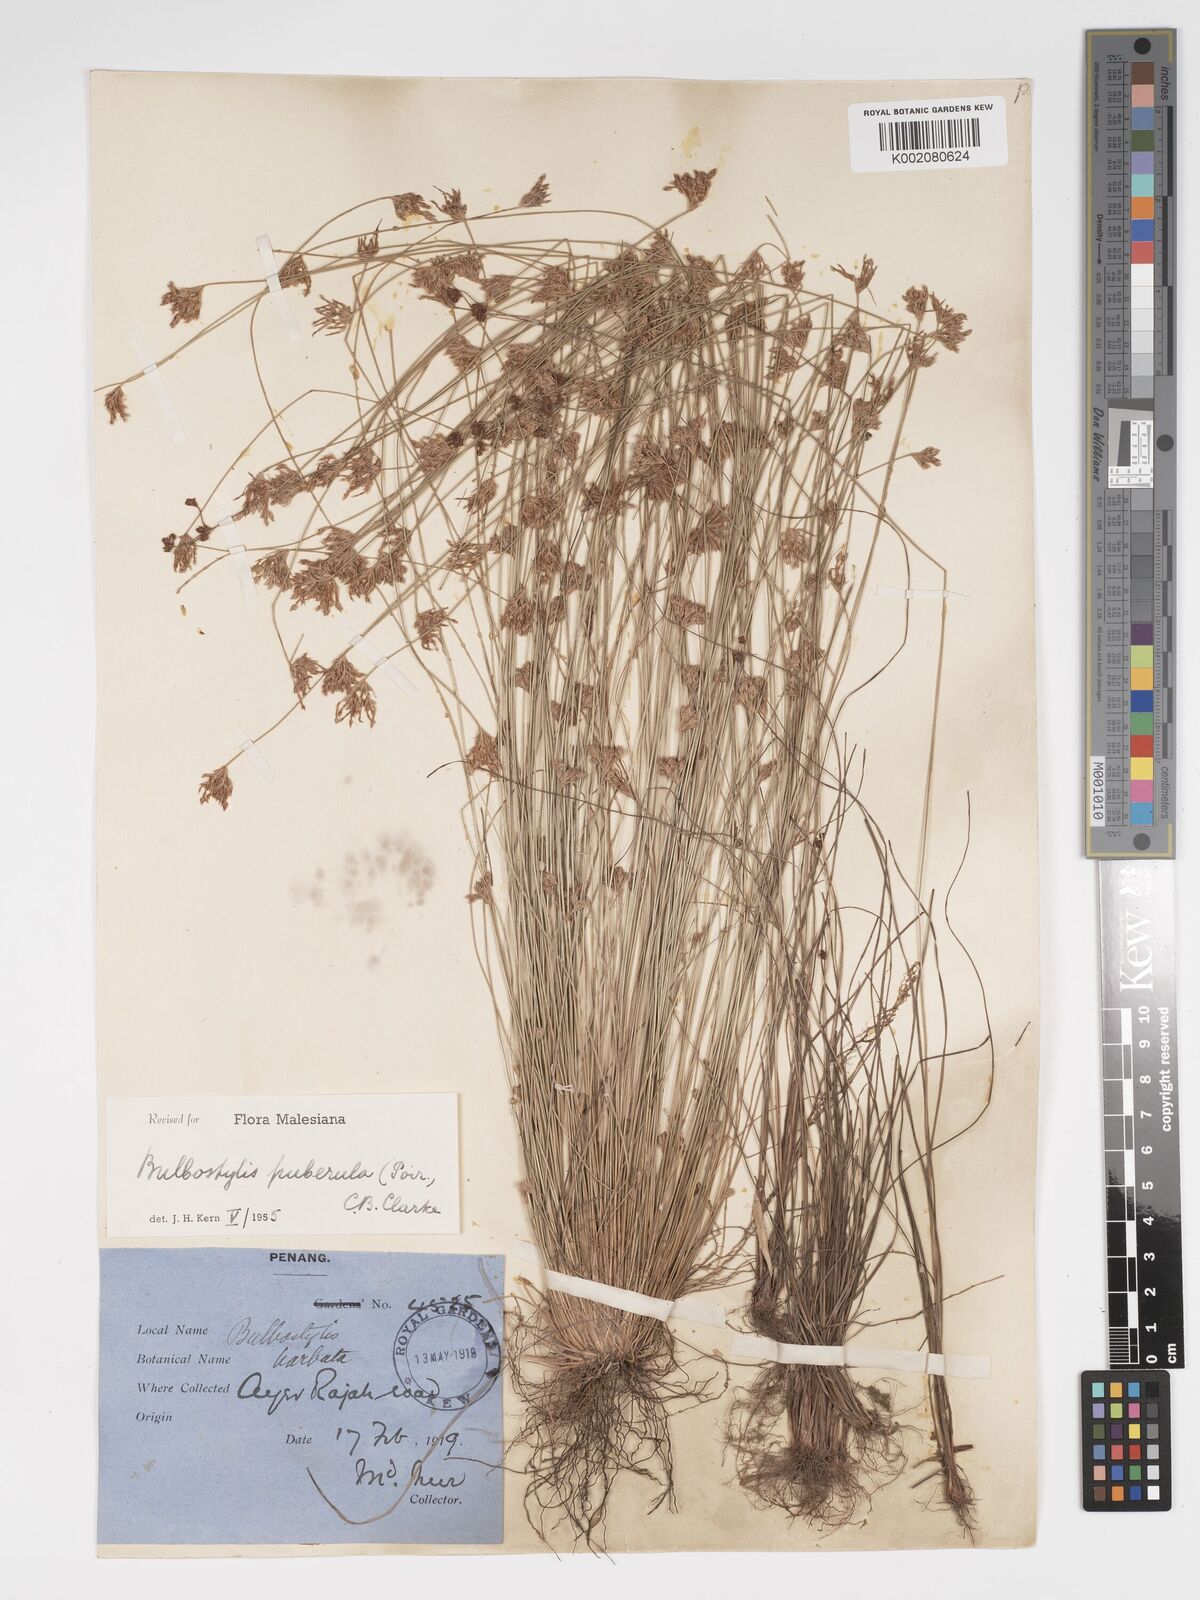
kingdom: Plantae
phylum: Tracheophyta
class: Liliopsida
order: Poales
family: Cyperaceae
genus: Bulbostylis
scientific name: Bulbostylis thouarsii
